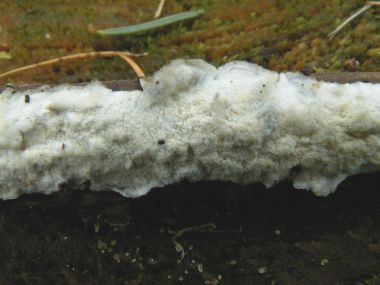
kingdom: Fungi
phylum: Basidiomycota
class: Agaricomycetes
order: Polyporales
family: Irpicaceae
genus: Byssomerulius
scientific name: Byssomerulius corium
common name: læder-åresvamp
